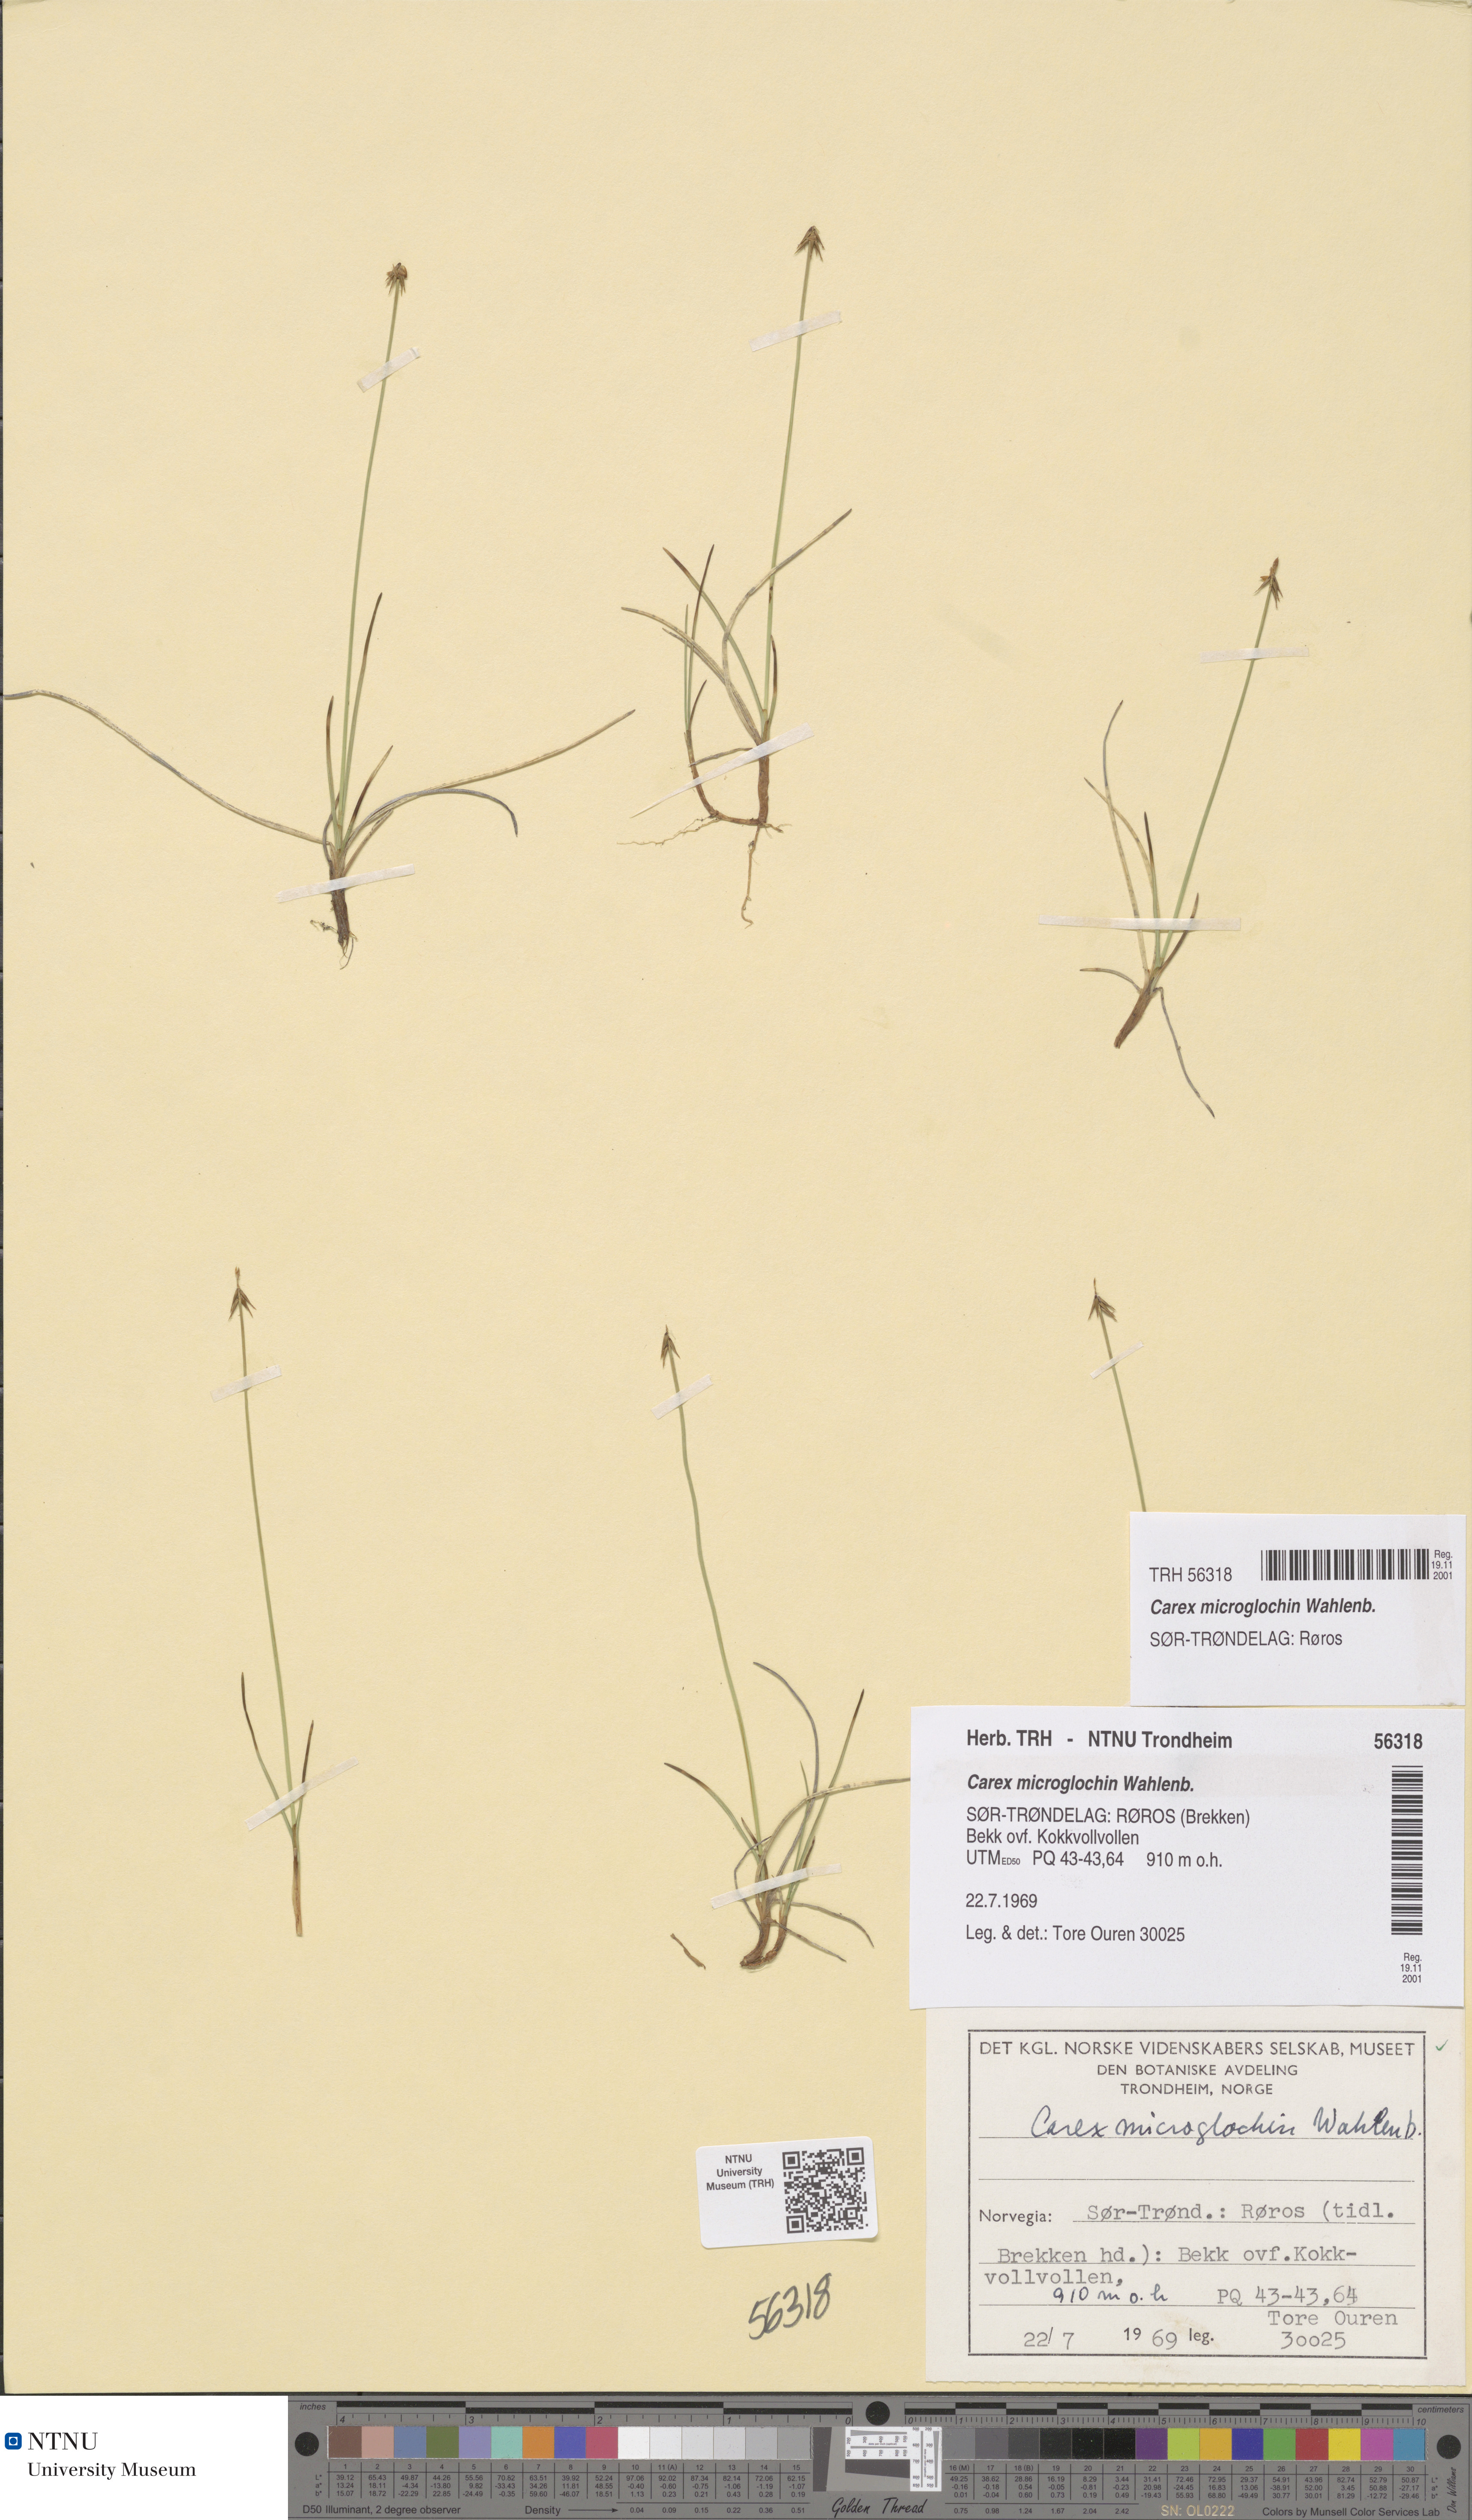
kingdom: Plantae
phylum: Tracheophyta
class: Liliopsida
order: Poales
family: Cyperaceae
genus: Carex
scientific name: Carex microglochin
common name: Bristle sedge
